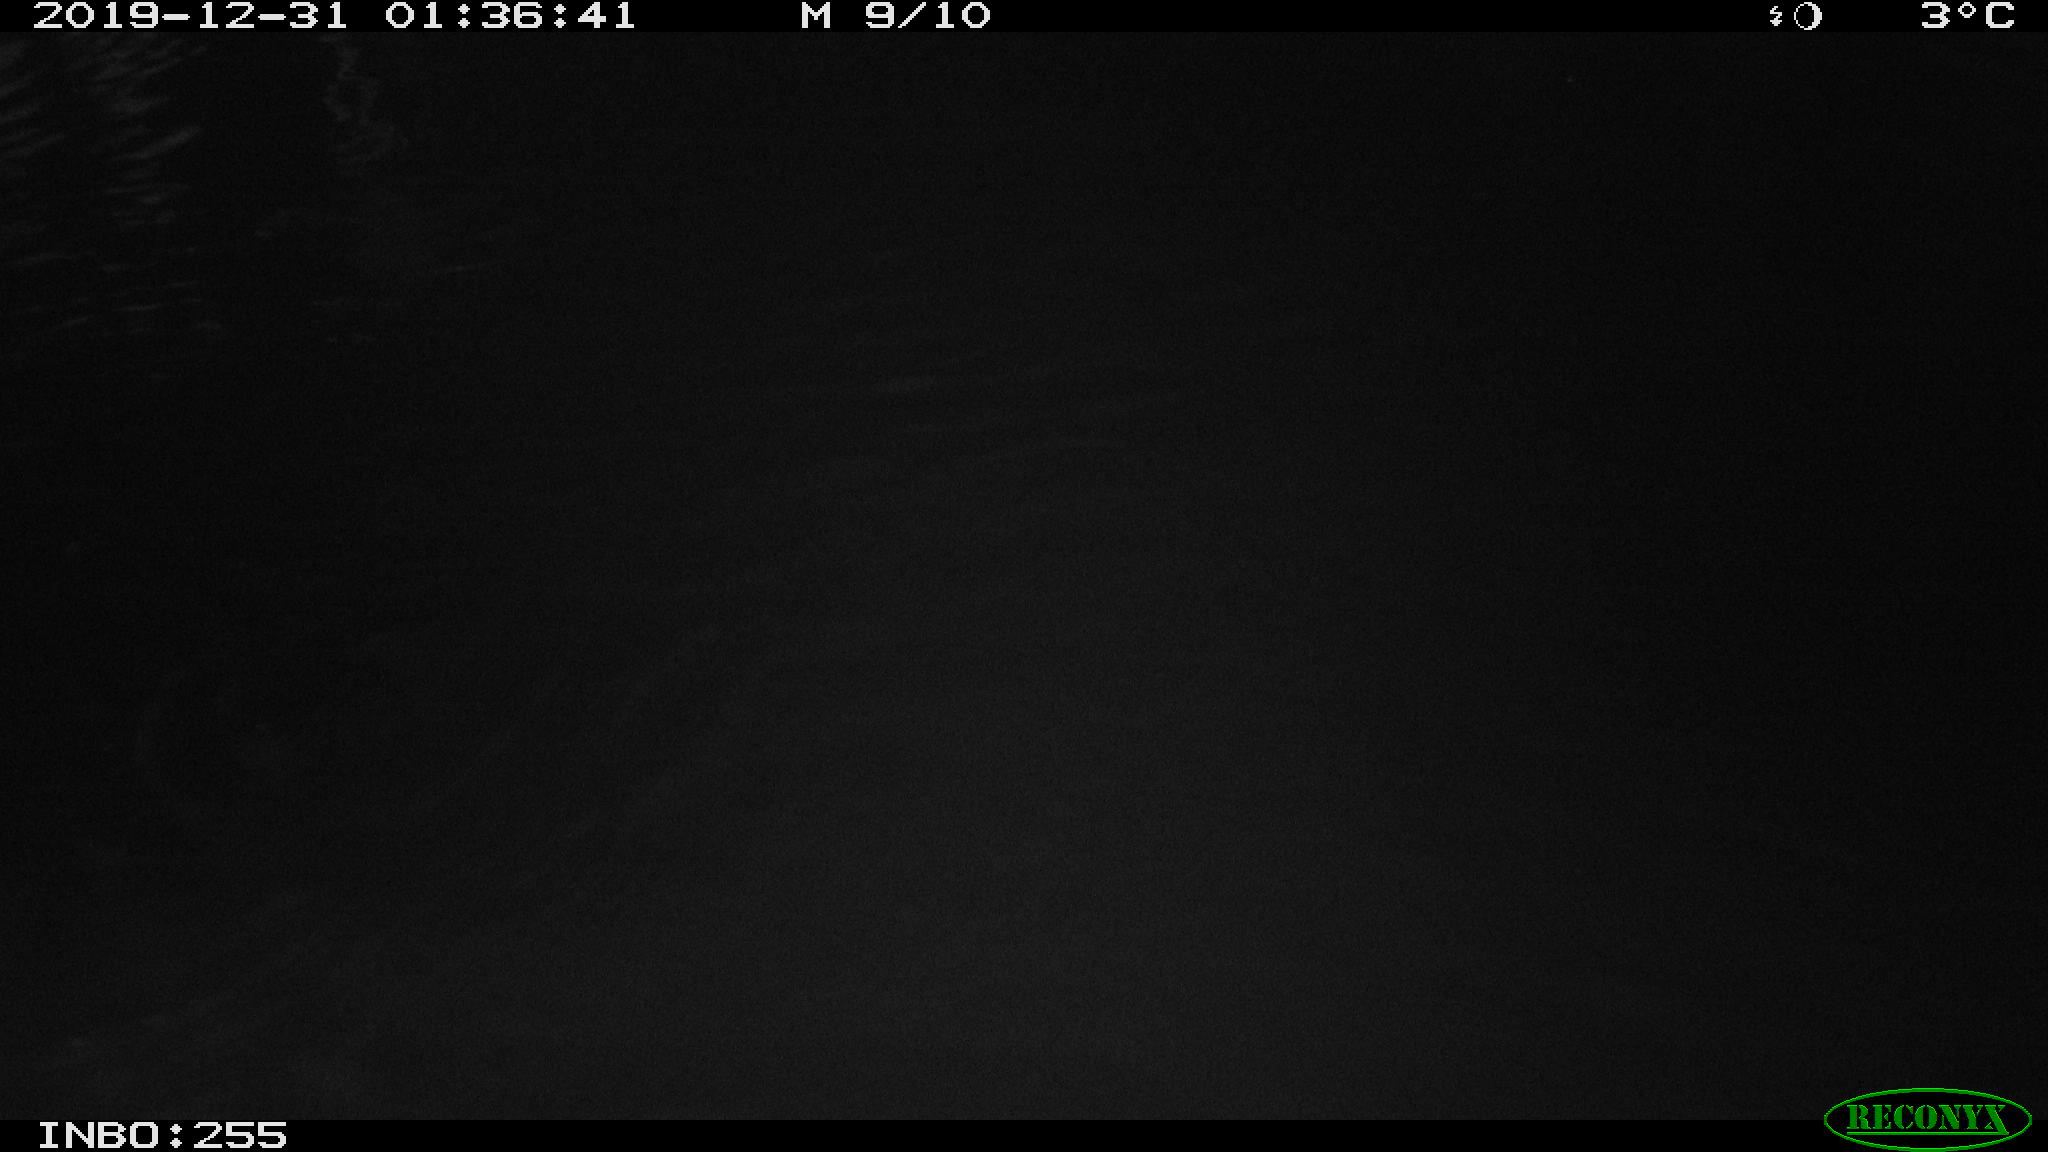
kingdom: Animalia
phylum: Chordata
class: Aves
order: Anseriformes
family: Anatidae
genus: Anas
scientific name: Anas platyrhynchos
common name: Mallard
